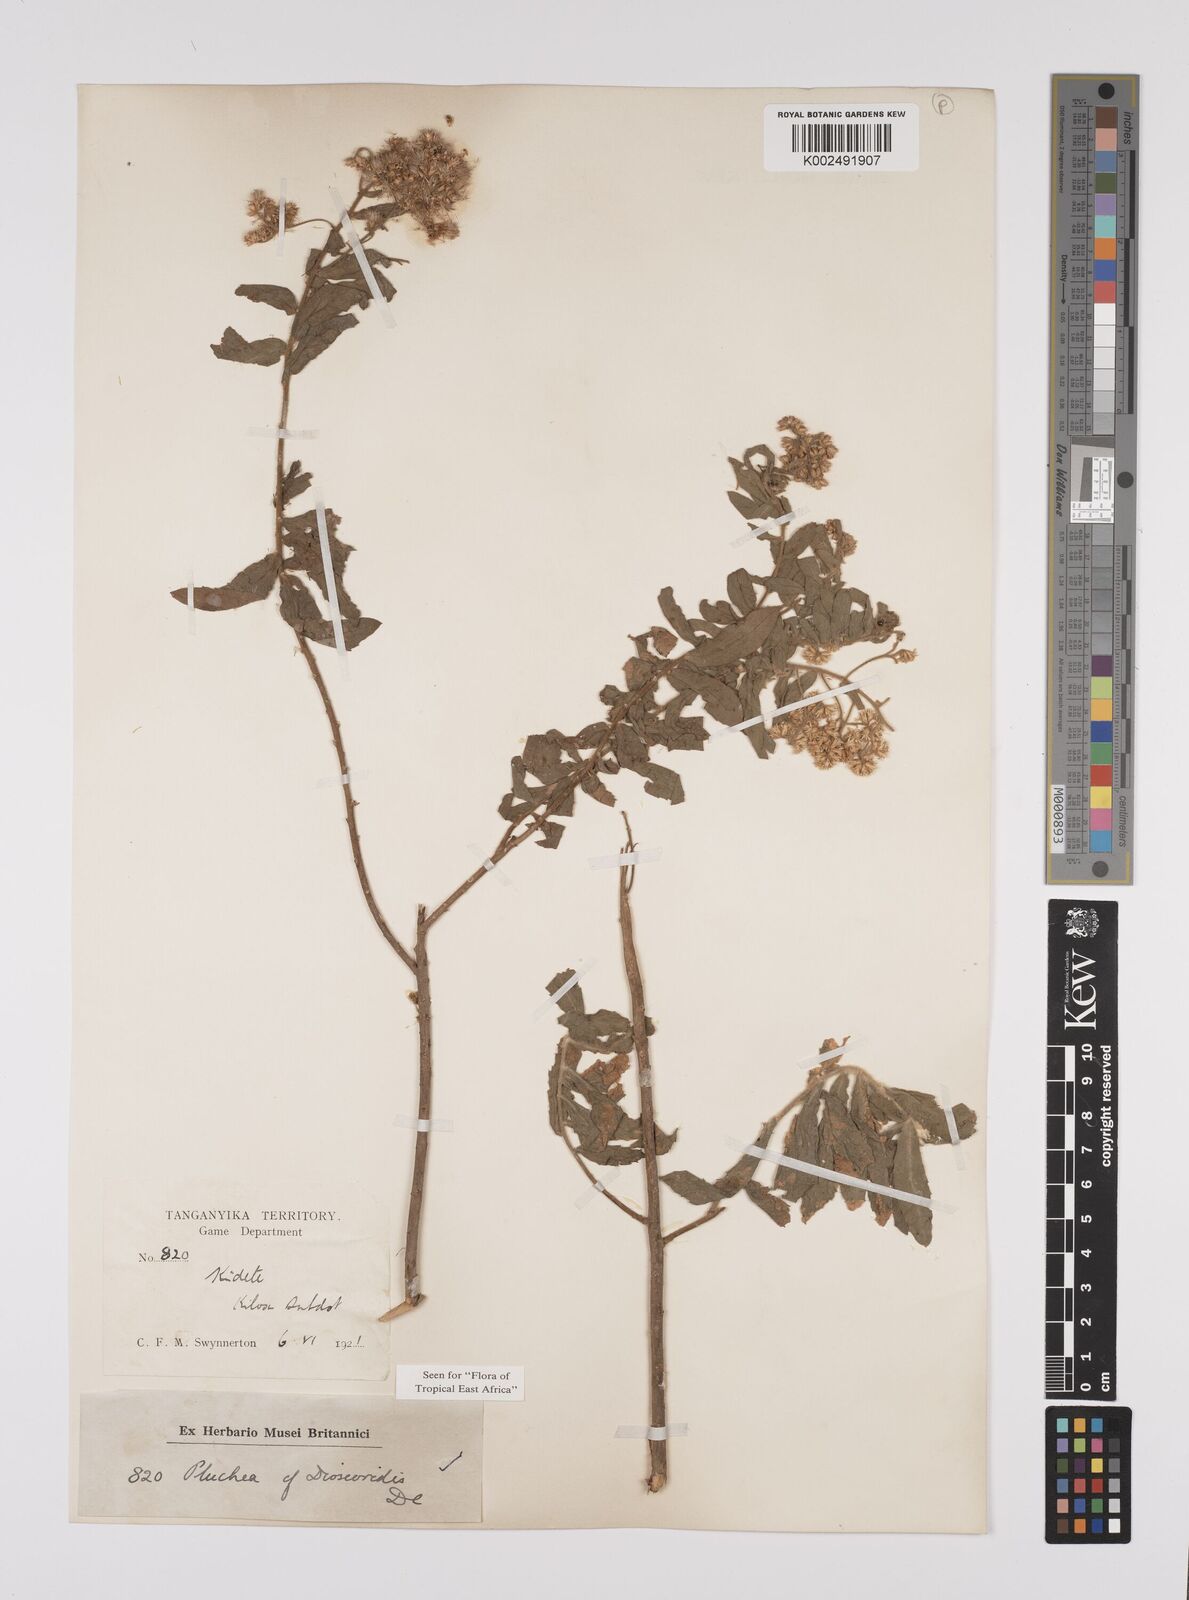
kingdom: Plantae
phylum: Tracheophyta
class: Magnoliopsida
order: Asterales
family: Asteraceae
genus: Pluchea
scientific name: Pluchea dioscoridis
